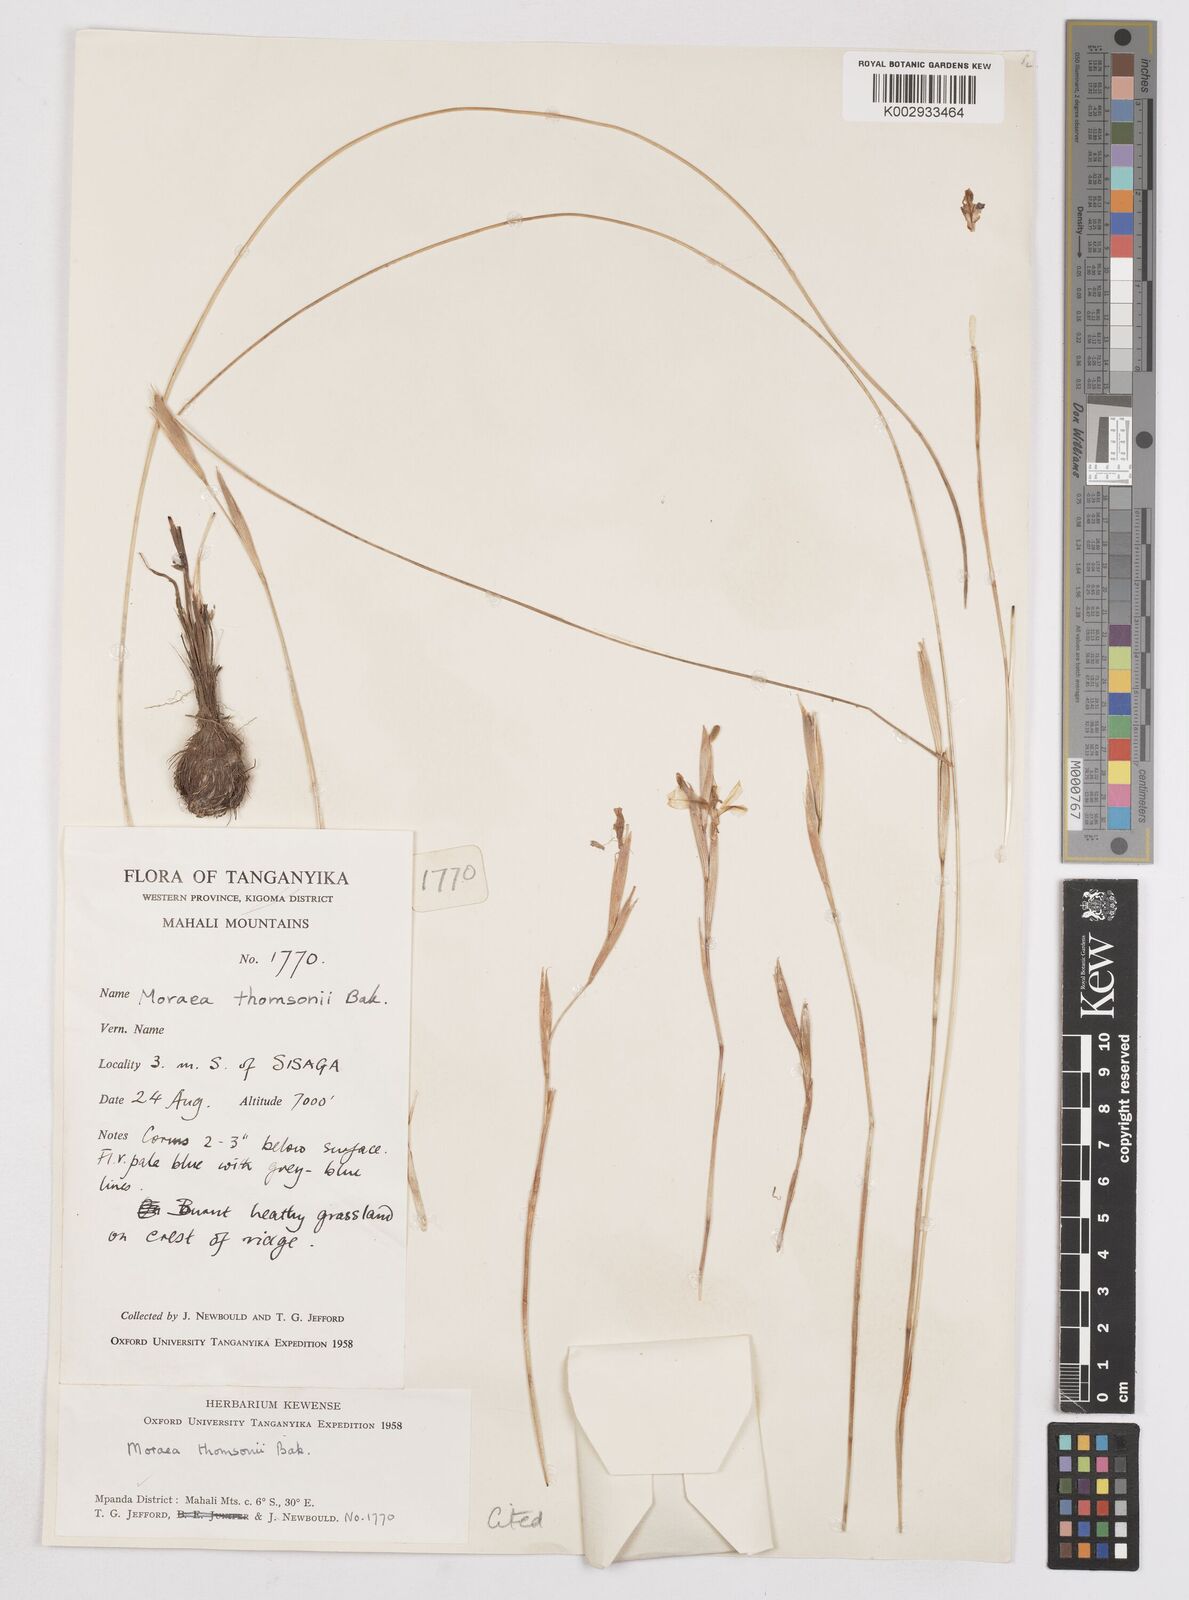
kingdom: Plantae
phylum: Tracheophyta
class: Liliopsida
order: Asparagales
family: Iridaceae
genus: Moraea
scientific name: Moraea thomsonii
